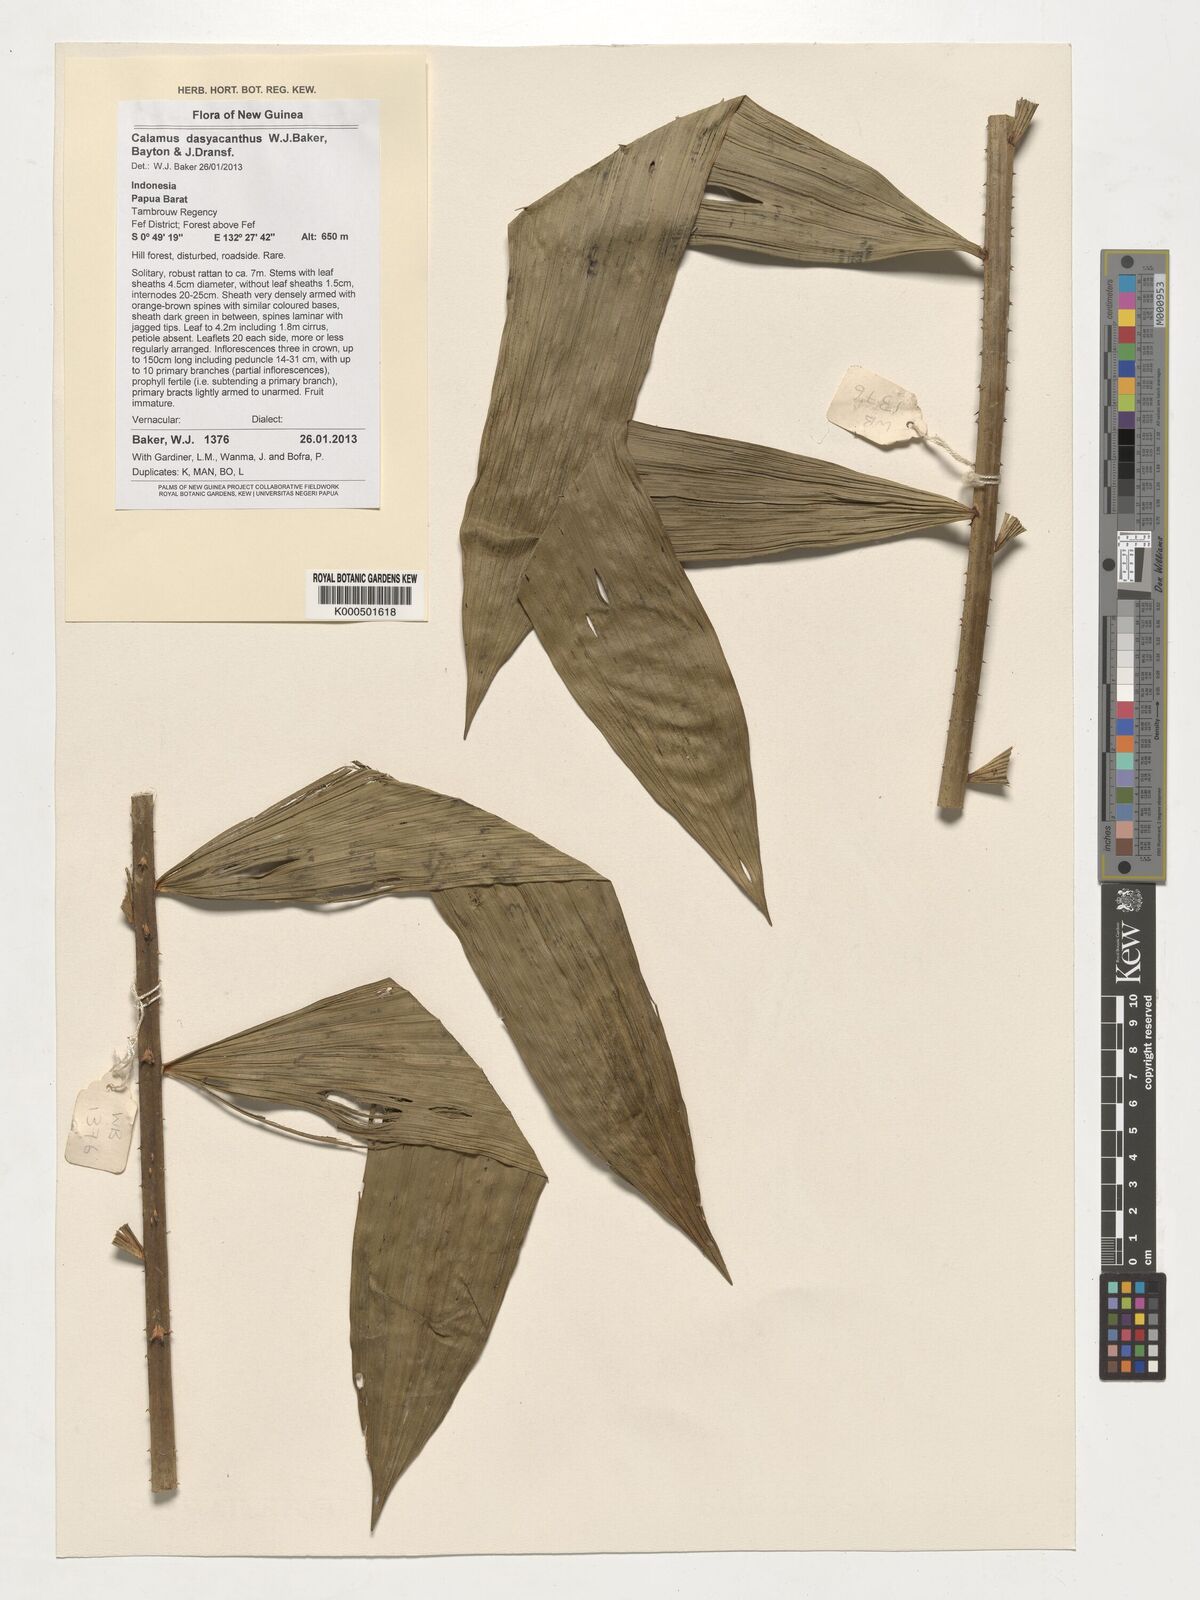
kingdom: Plantae
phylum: Tracheophyta
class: Liliopsida
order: Arecales
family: Arecaceae
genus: Calamus
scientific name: Calamus dasyacanthus
